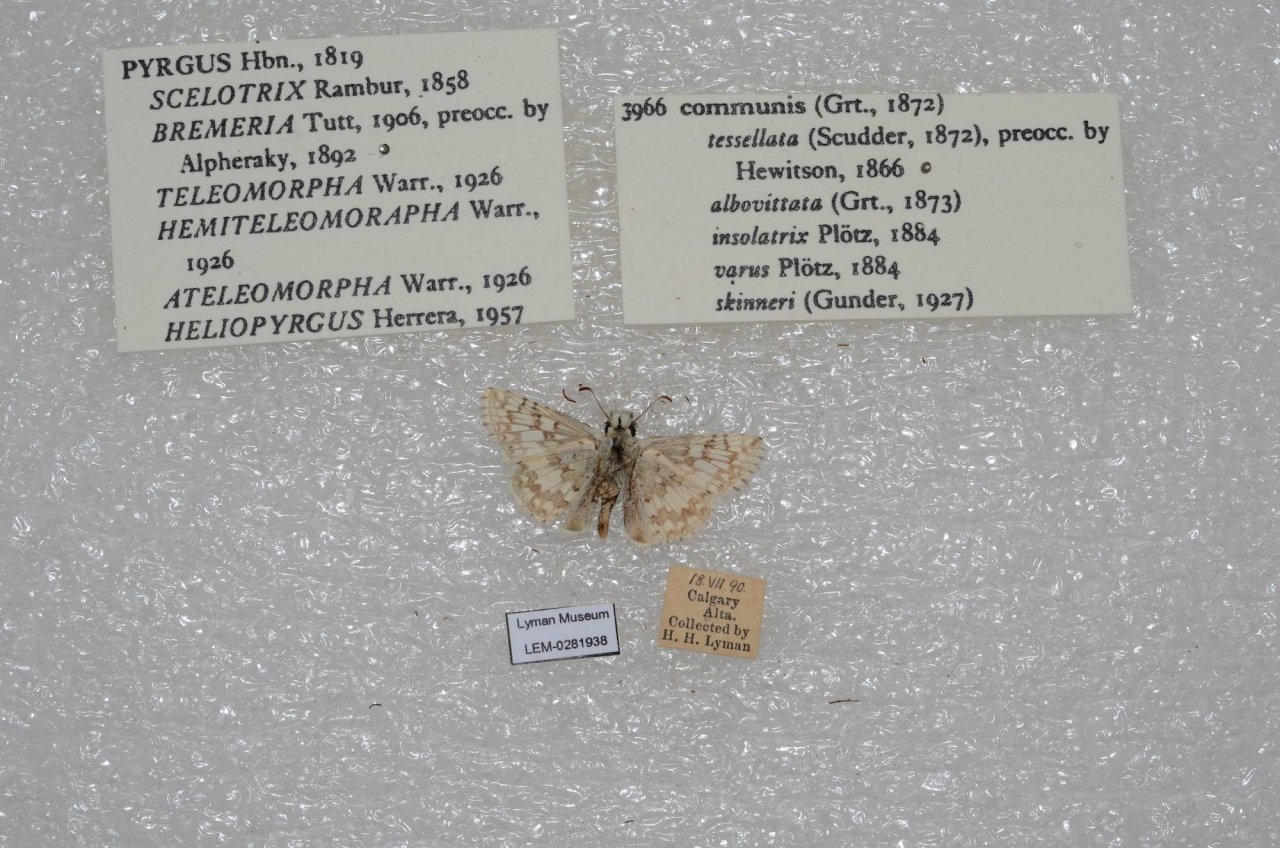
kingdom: Animalia
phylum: Arthropoda
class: Insecta
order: Lepidoptera
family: Hesperiidae
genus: Pyrgus
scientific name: Pyrgus communis
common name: Common Checkered-Skipper
